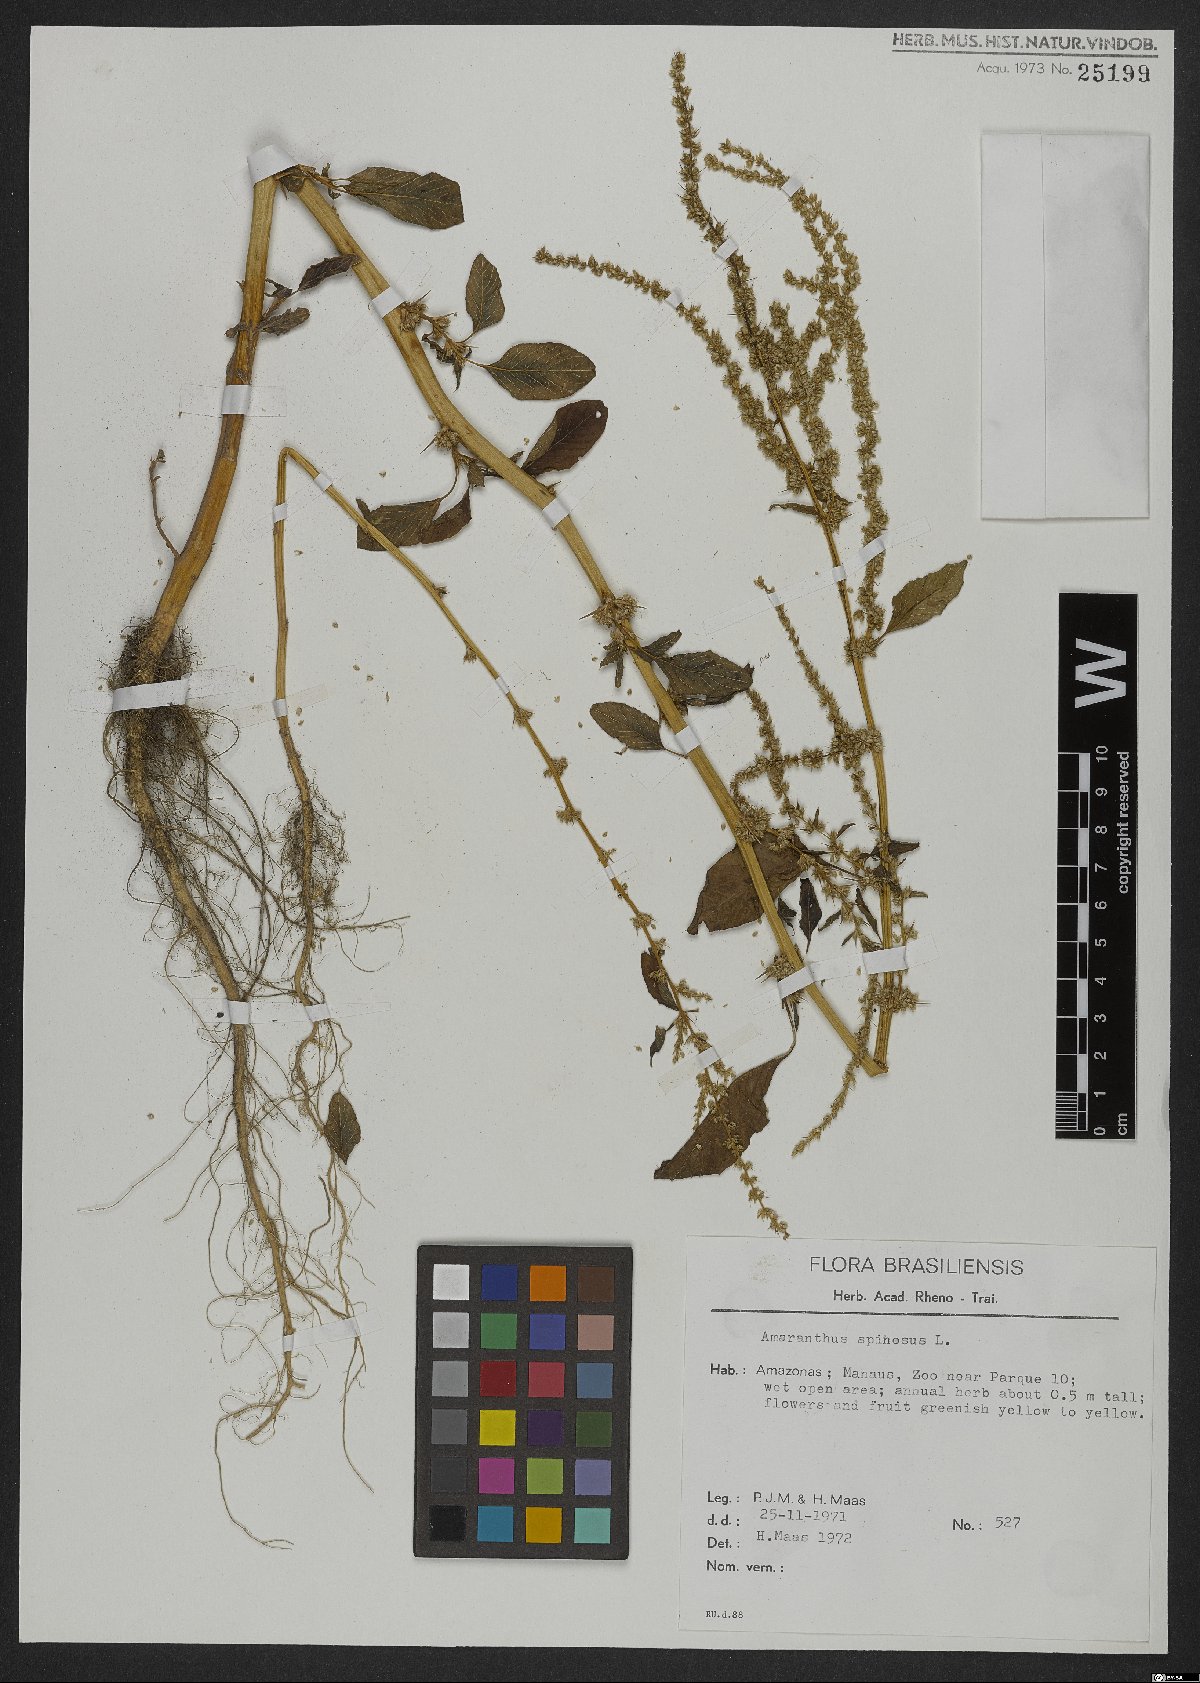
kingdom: Plantae
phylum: Tracheophyta
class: Magnoliopsida
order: Caryophyllales
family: Amaranthaceae
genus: Amaranthus
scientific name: Amaranthus spinosus
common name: Spiny amaranth
